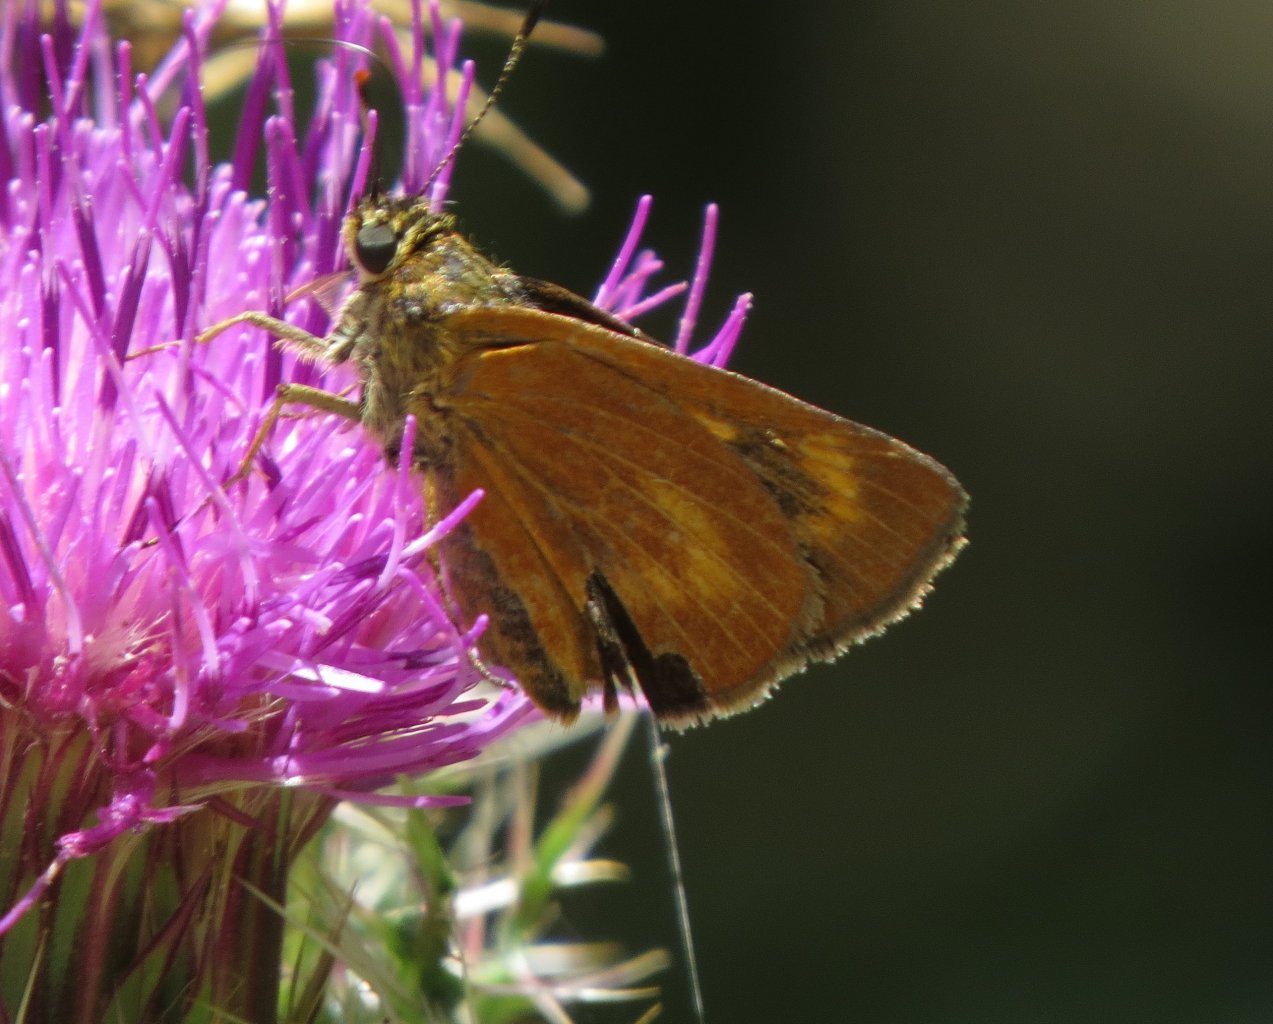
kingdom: Animalia
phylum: Arthropoda
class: Insecta
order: Lepidoptera
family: Hesperiidae
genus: Problema
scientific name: Problema byssus
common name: Byssus Skipper
